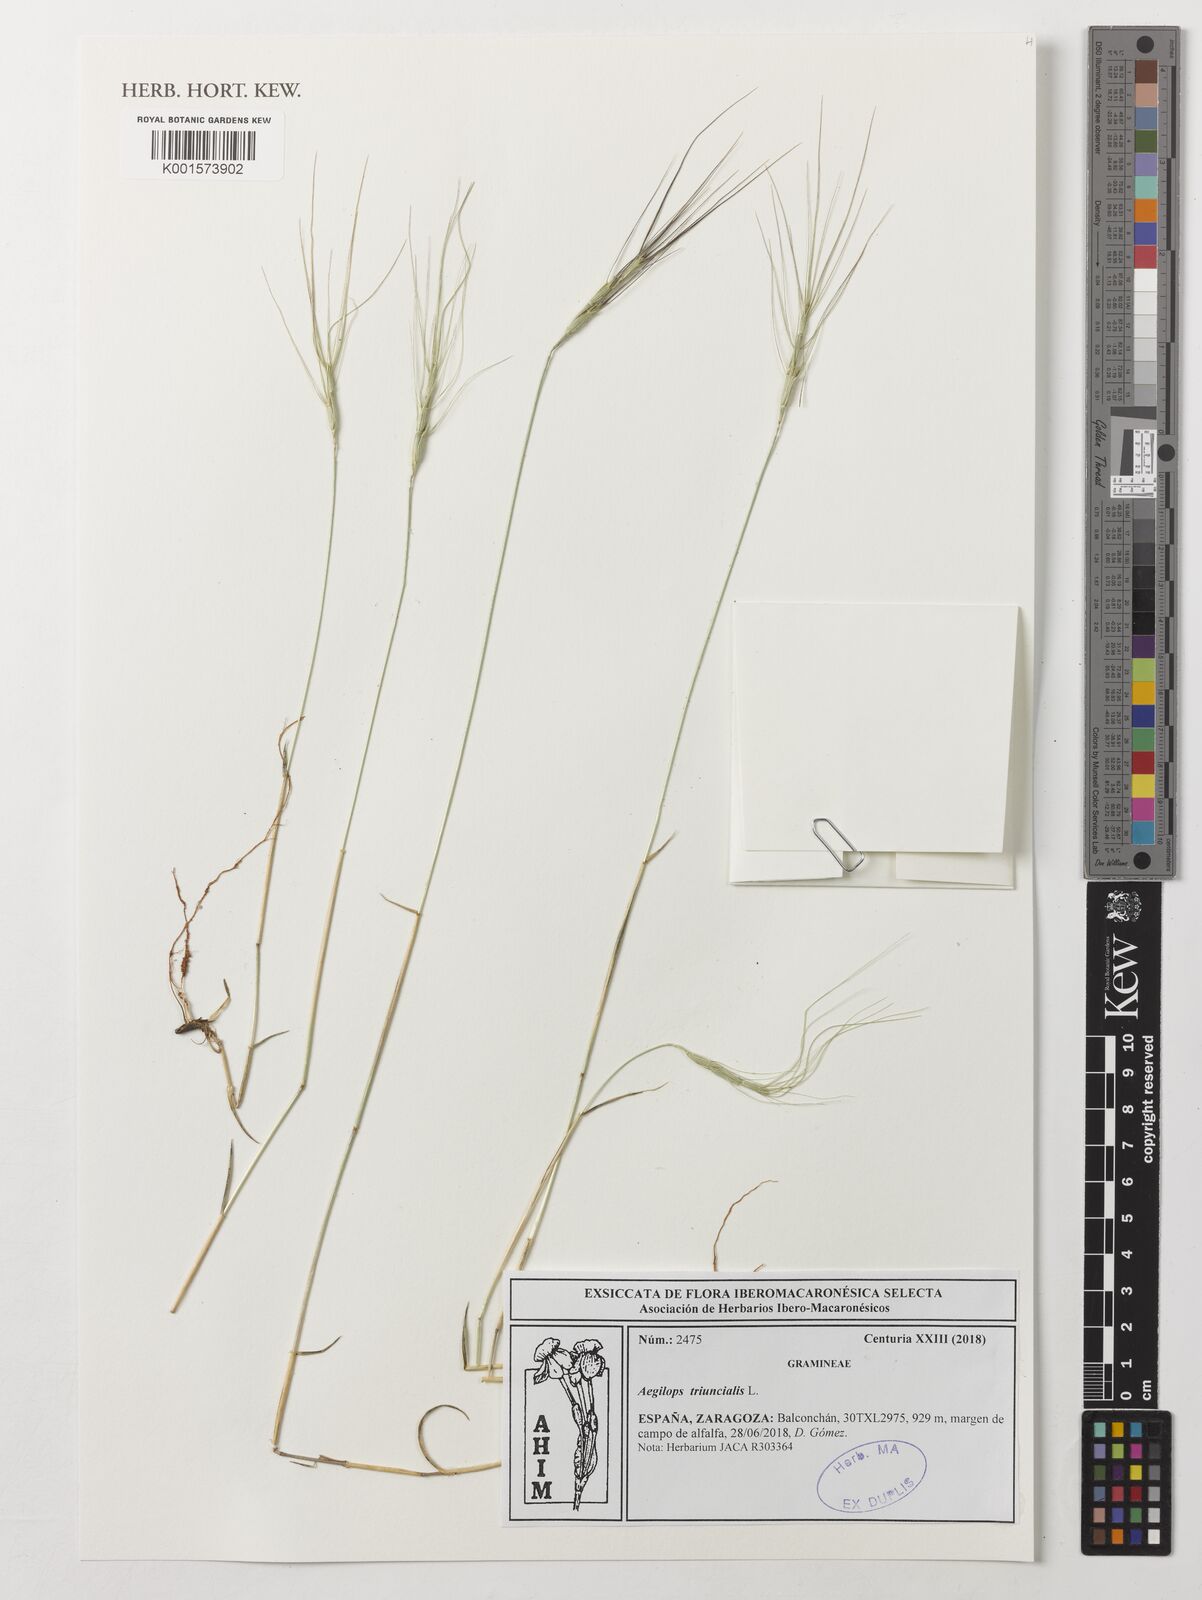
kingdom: Plantae
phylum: Tracheophyta
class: Liliopsida
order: Poales
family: Poaceae
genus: Aegilops
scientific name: Aegilops triuncialis
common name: Barb goat grass
